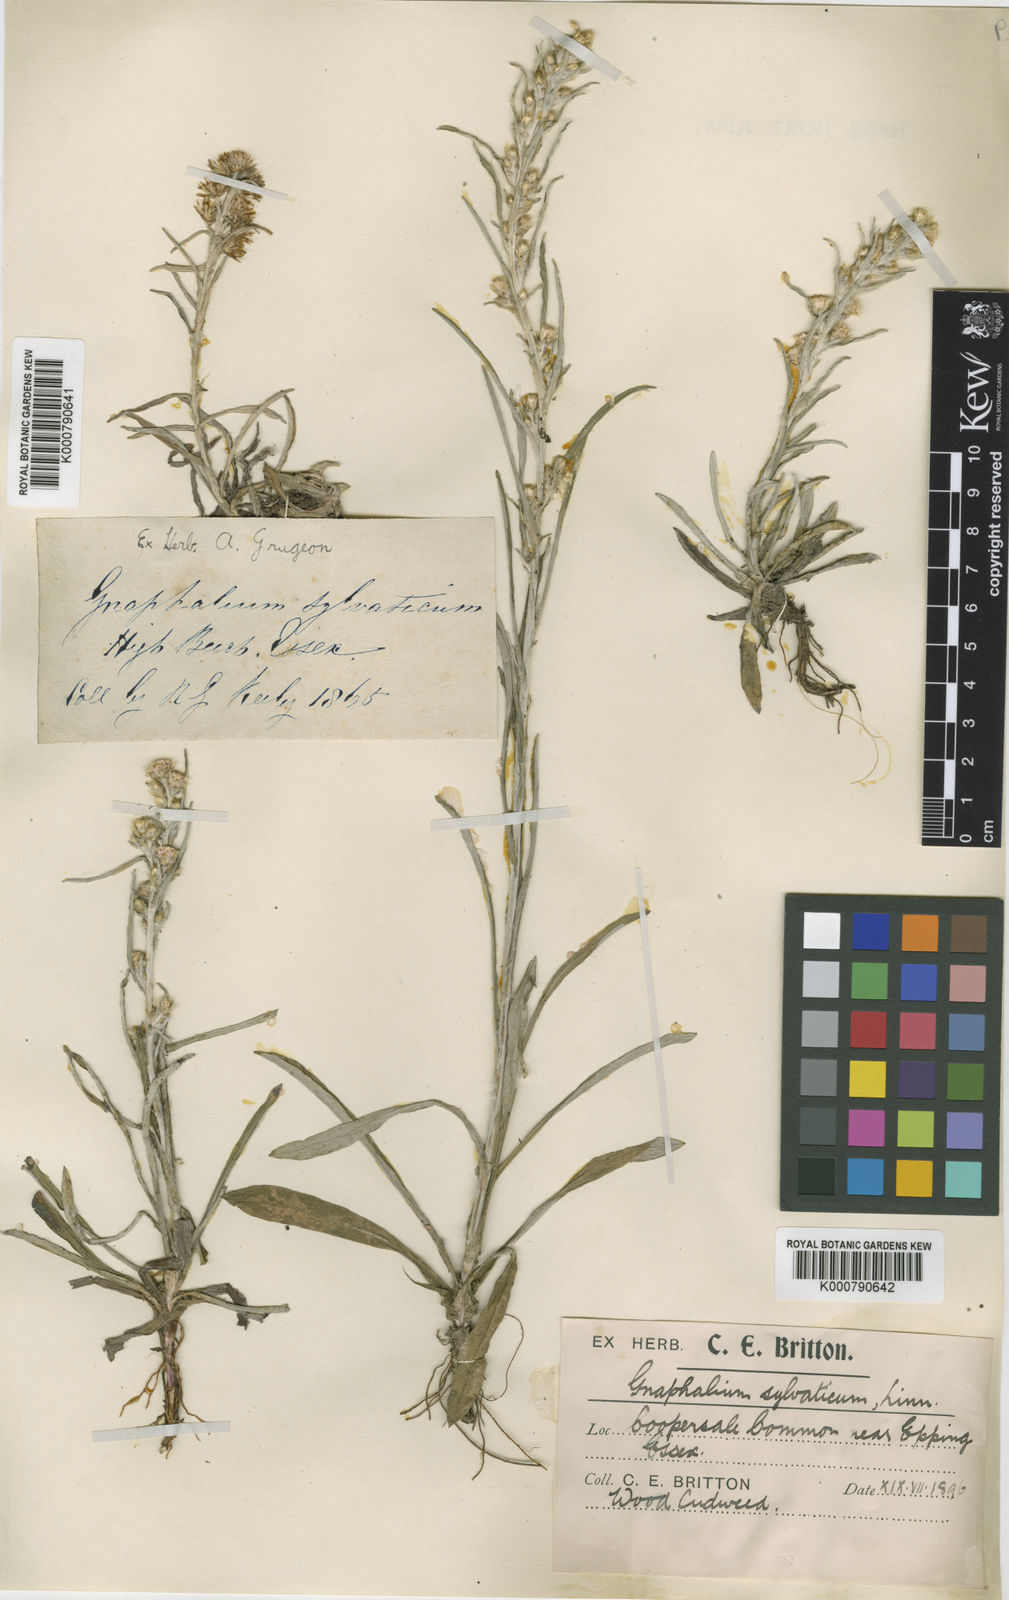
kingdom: Plantae
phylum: Tracheophyta
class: Magnoliopsida
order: Asterales
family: Asteraceae
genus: Omalotheca
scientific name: Omalotheca sylvatica
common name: Heath cudweed
